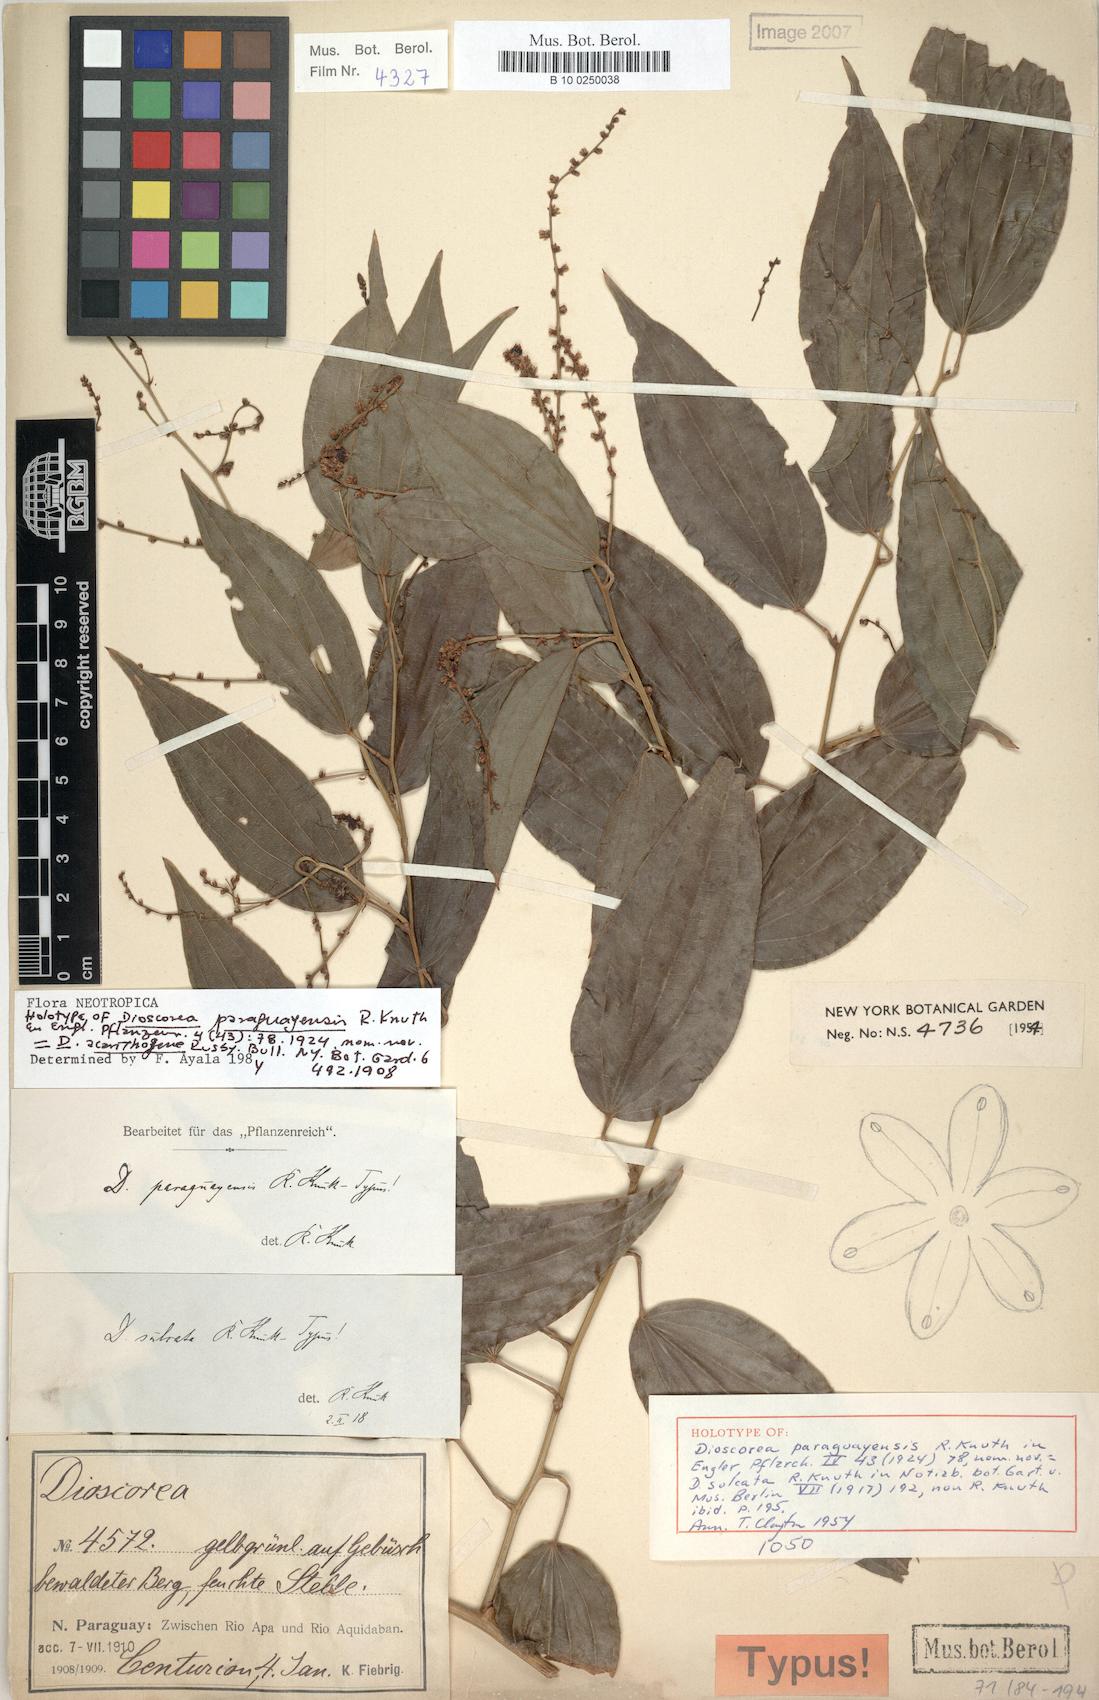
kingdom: Plantae
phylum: Tracheophyta
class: Liliopsida
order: Dioscoreales
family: Dioscoreaceae
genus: Dioscorea
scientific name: Dioscorea acanthogene
